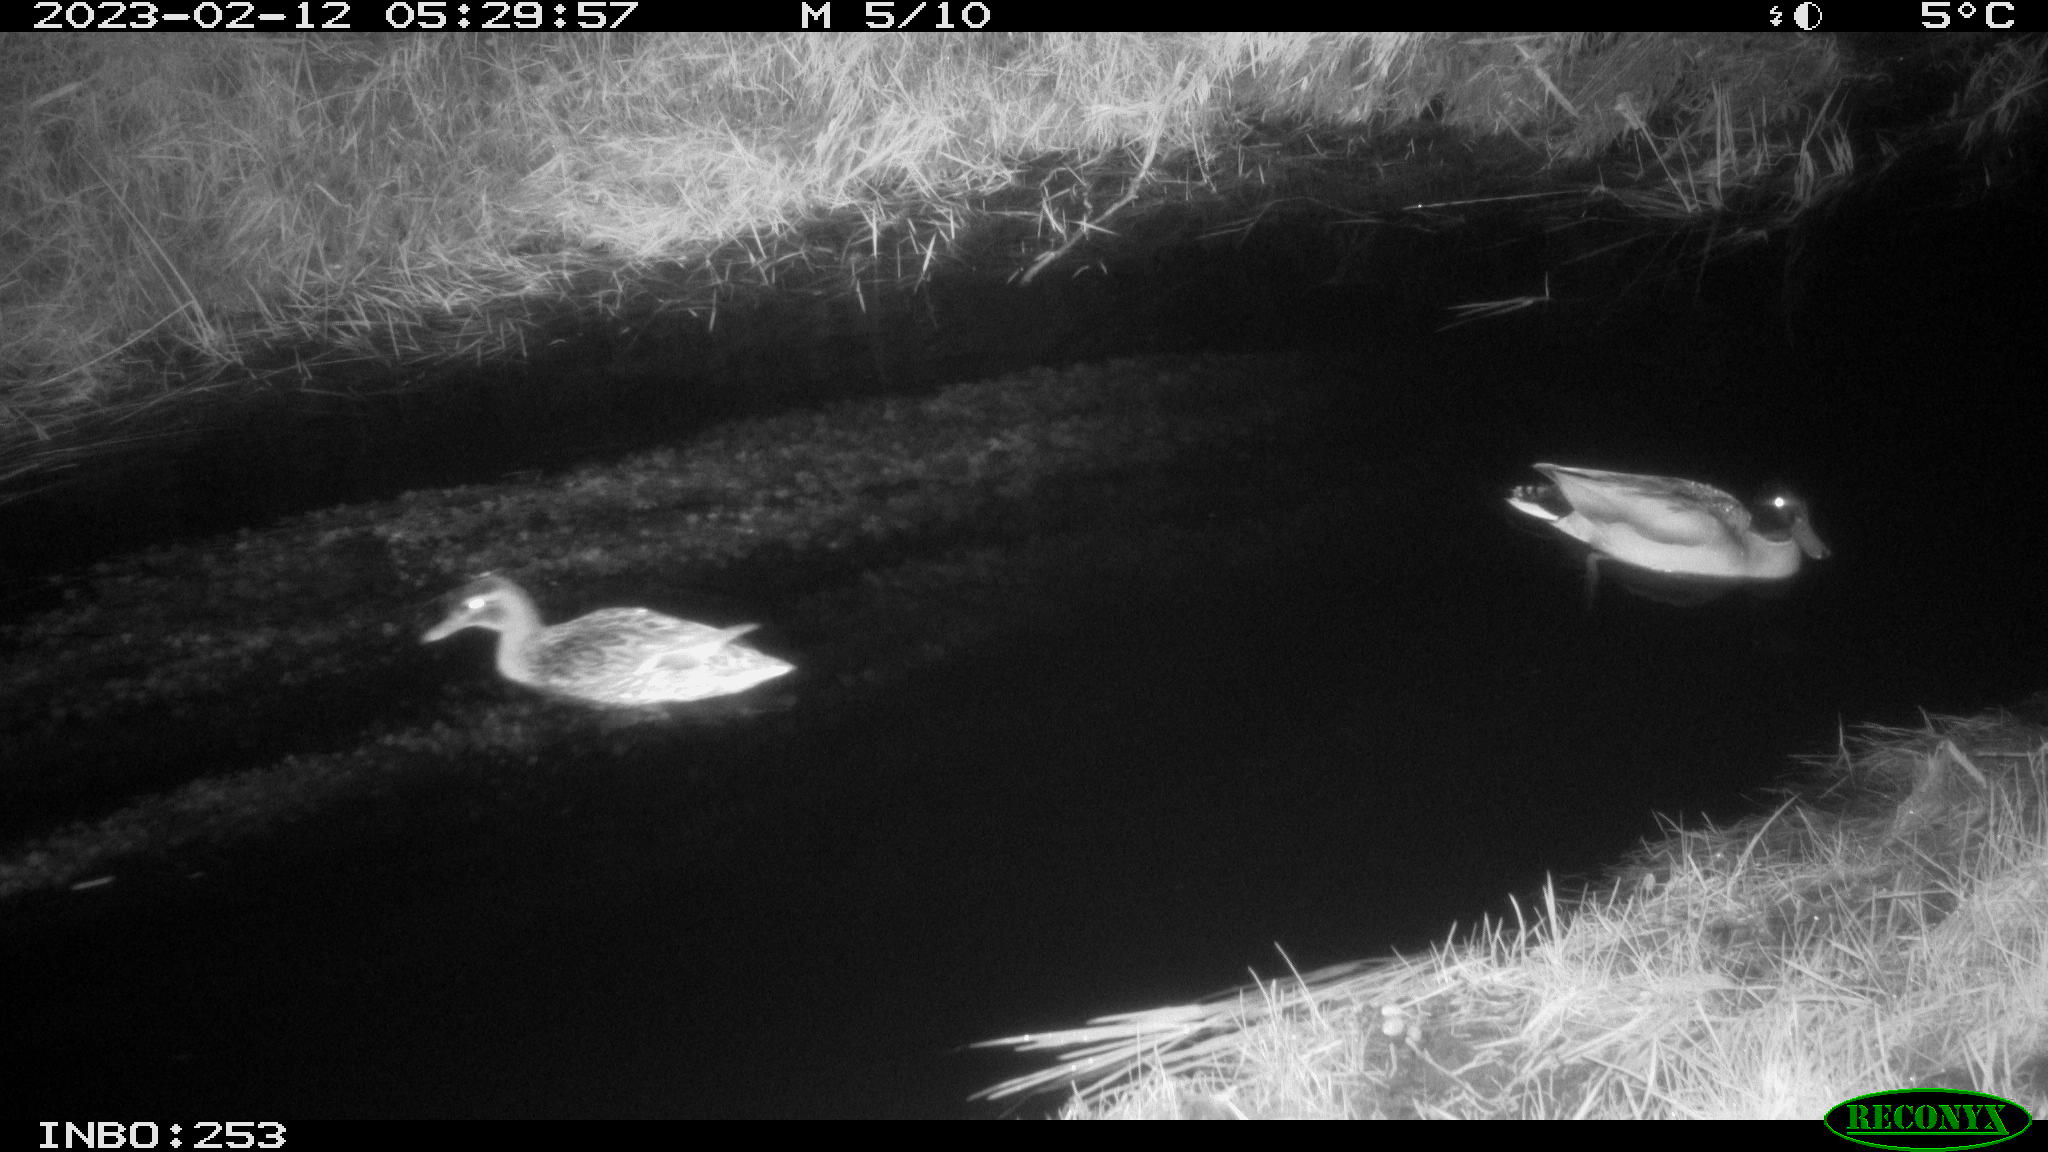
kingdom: Animalia
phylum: Chordata
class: Aves
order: Anseriformes
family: Anatidae
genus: Anas
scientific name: Anas
